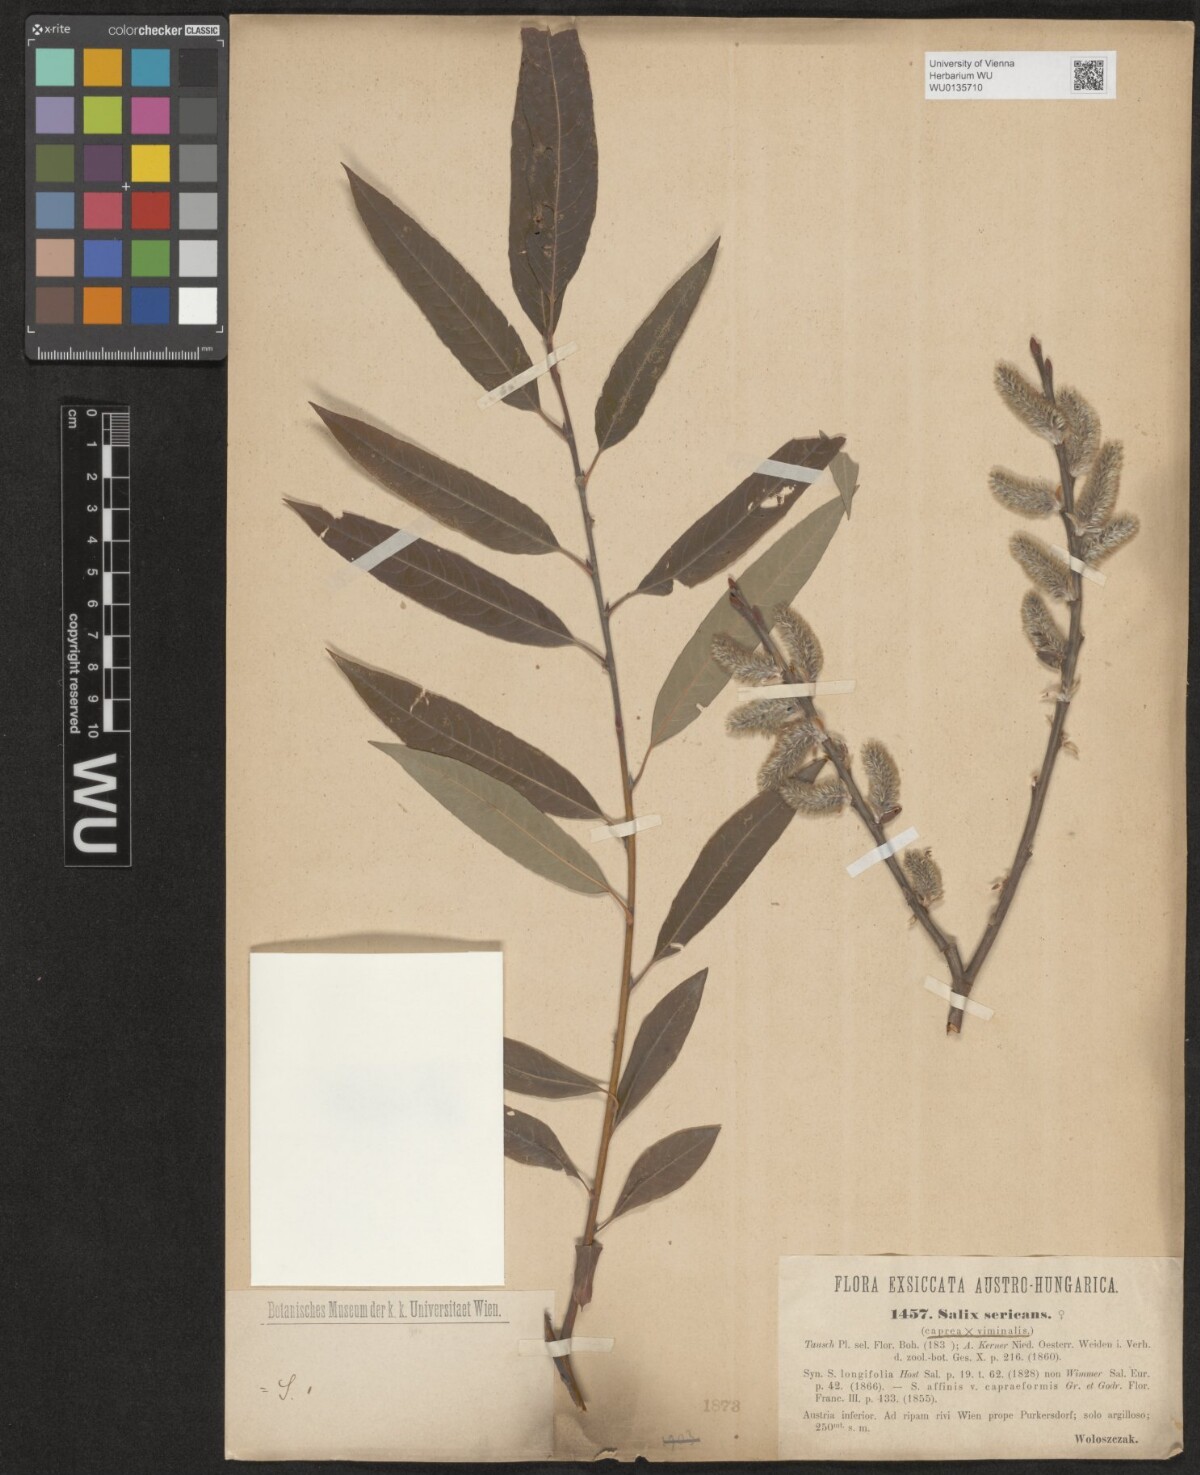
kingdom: Plantae
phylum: Tracheophyta
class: Magnoliopsida
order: Malpighiales
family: Salicaceae
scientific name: Salicaceae
